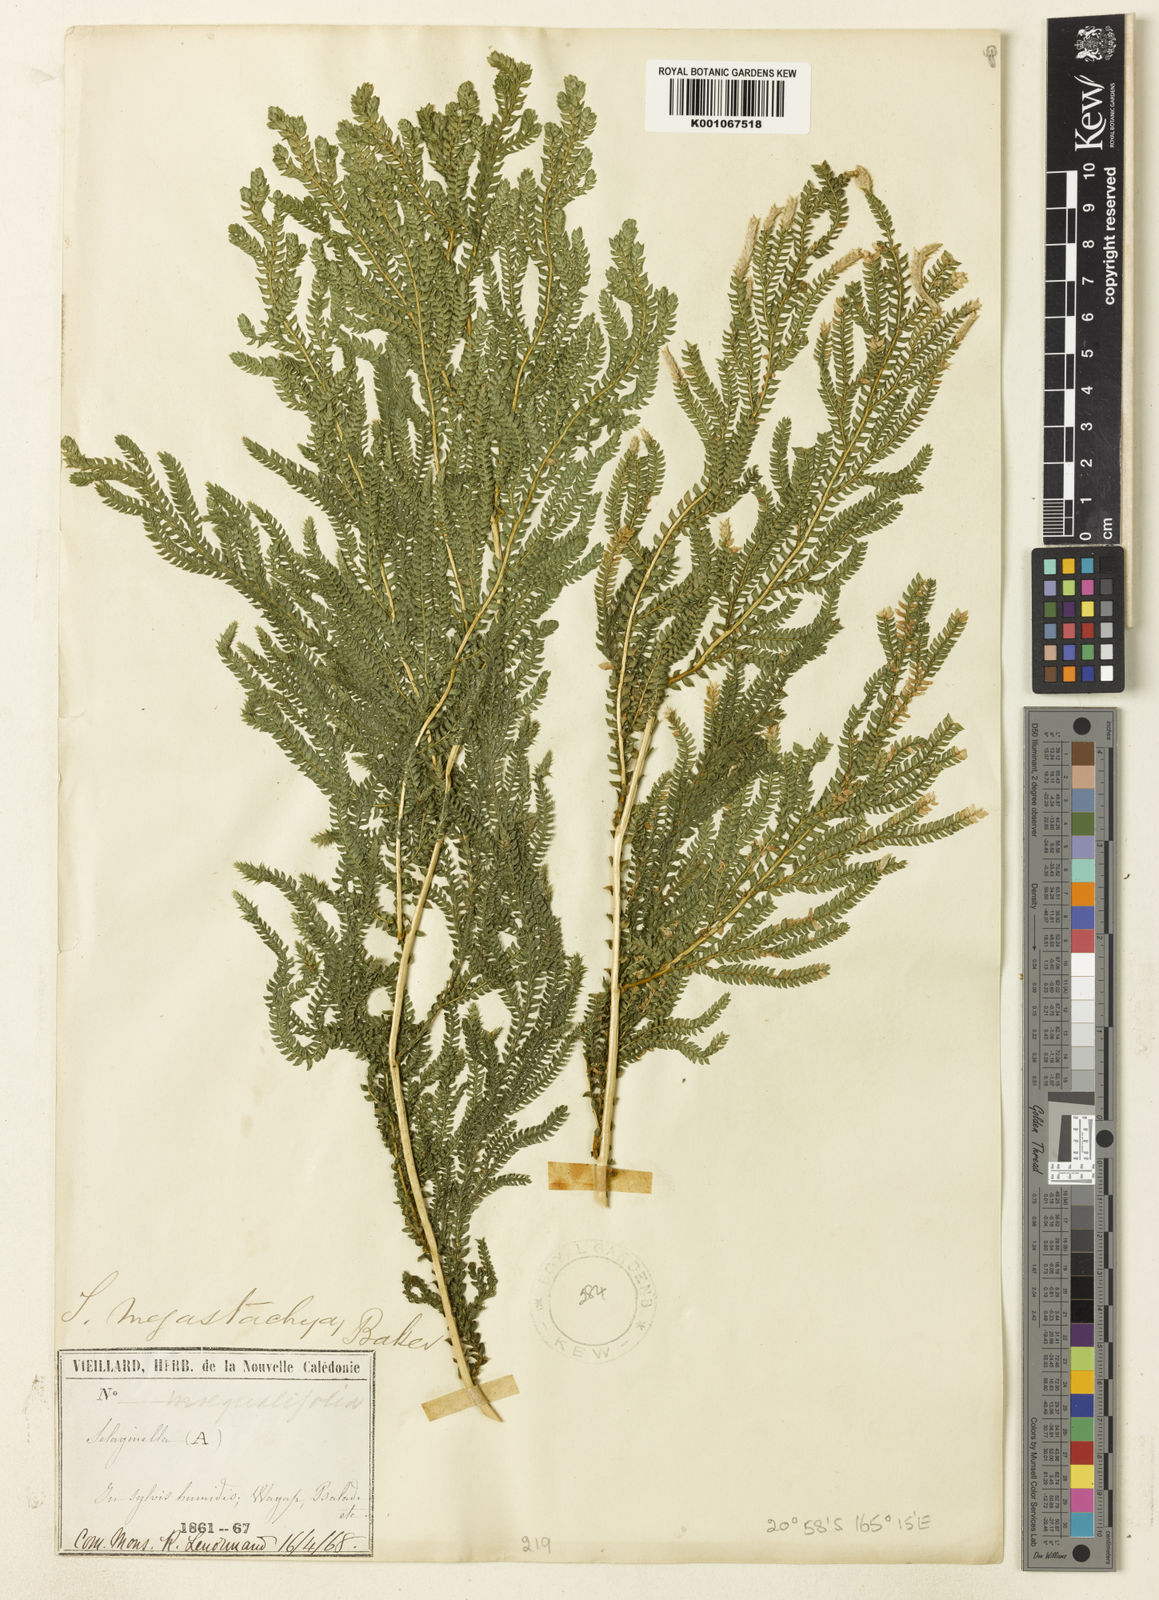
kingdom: Plantae
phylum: Tracheophyta
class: Lycopodiopsida
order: Selaginellales
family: Selaginellaceae
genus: Selaginella
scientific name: Selaginella megastachya
